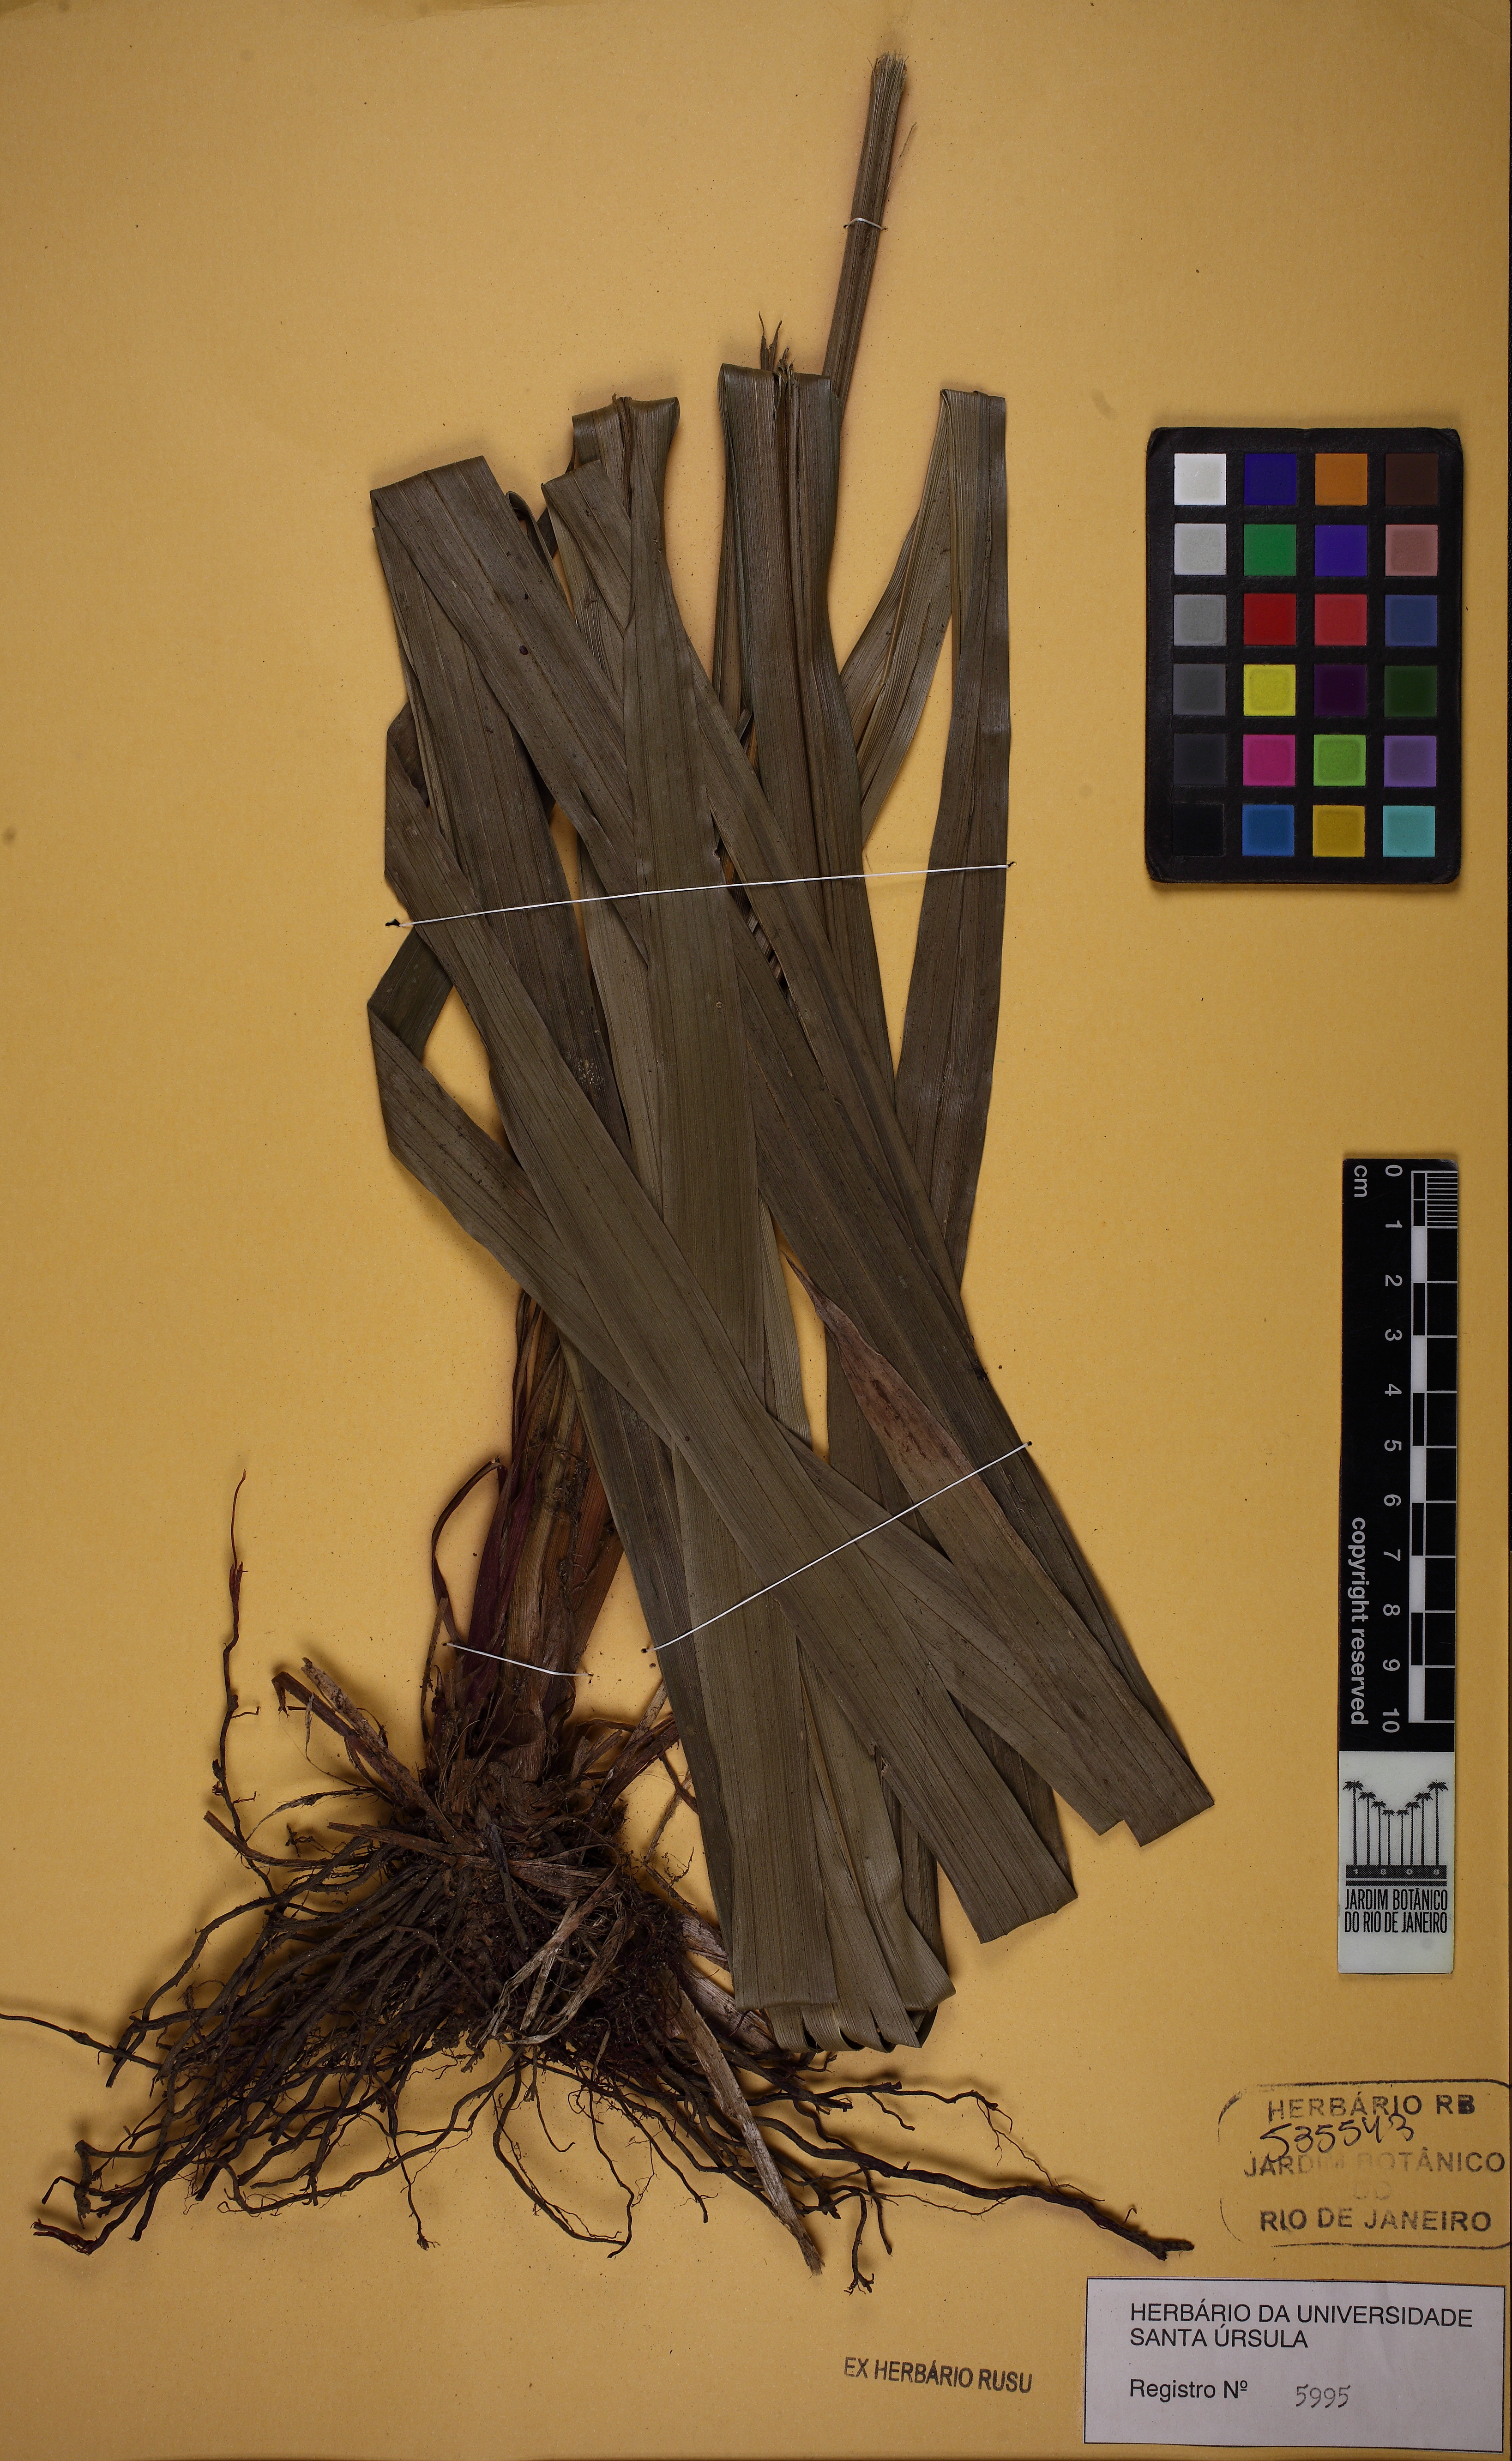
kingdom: Plantae
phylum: Tracheophyta
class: Liliopsida
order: Poales
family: Cyperaceae
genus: Becquerelia
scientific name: Becquerelia cymosa
